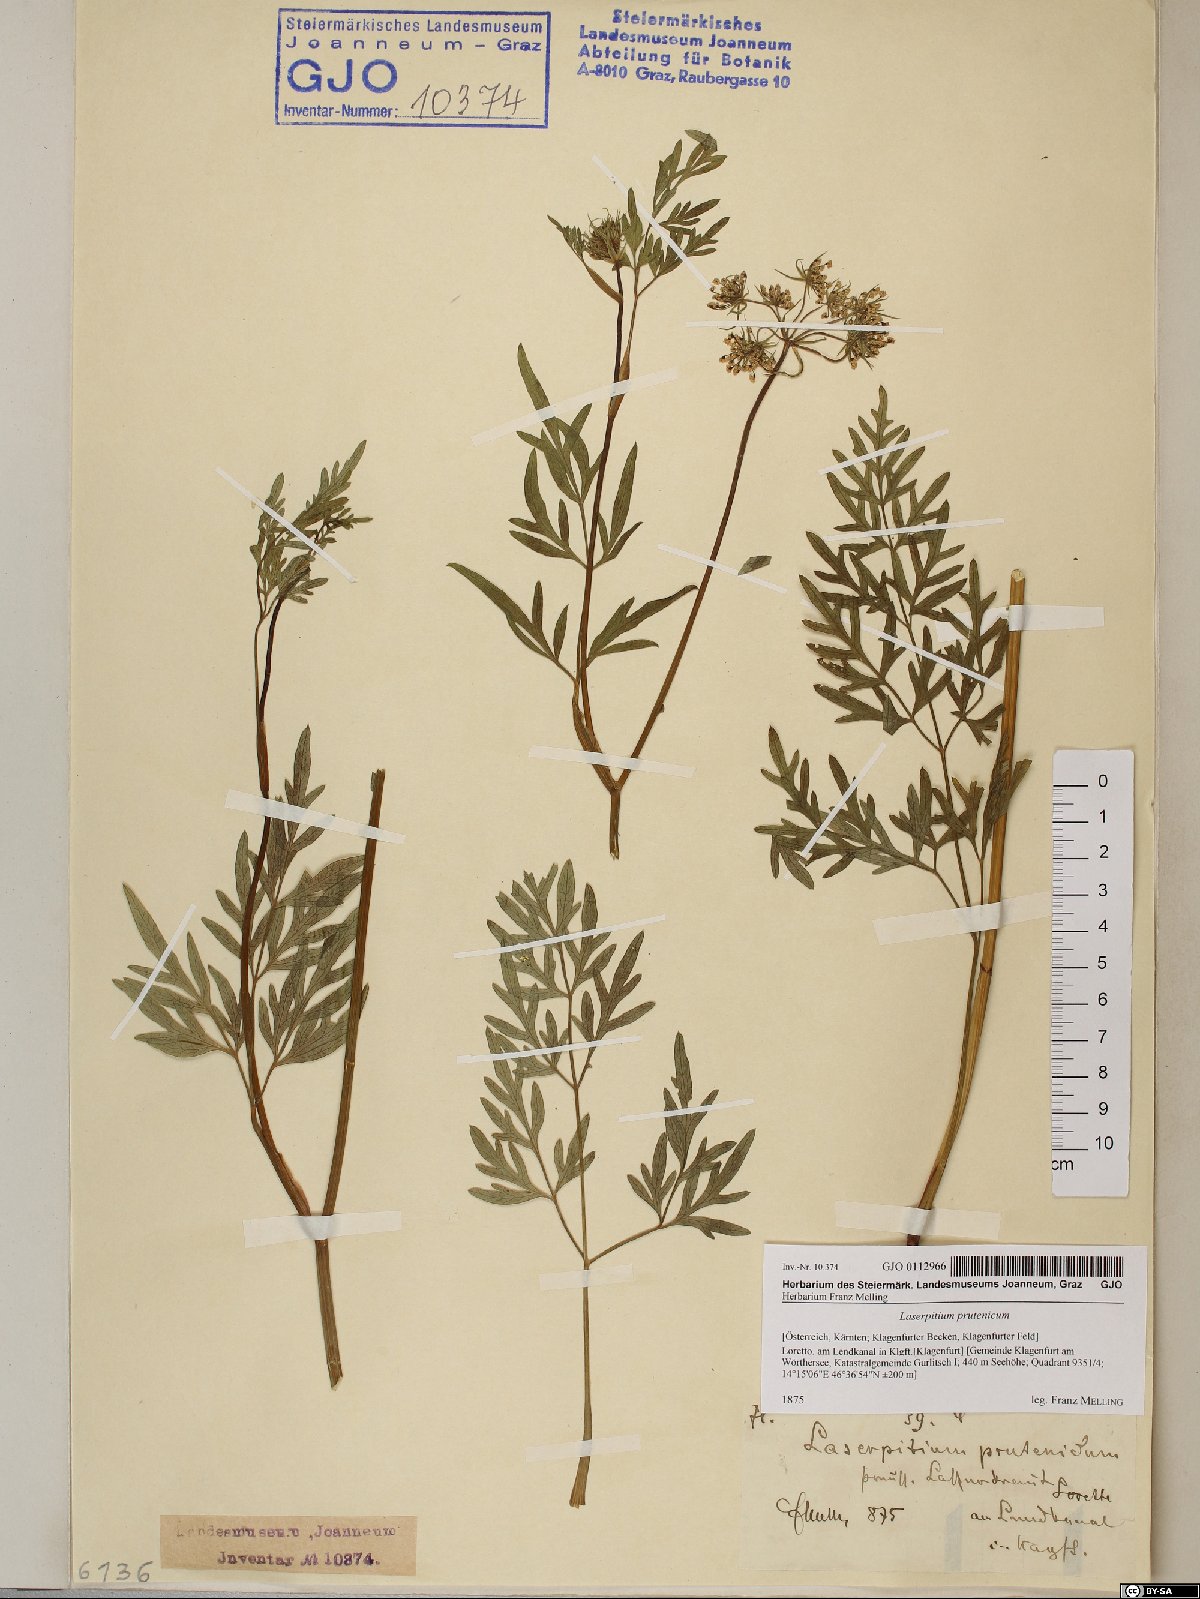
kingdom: Plantae
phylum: Tracheophyta
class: Magnoliopsida
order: Apiales
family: Apiaceae
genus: Silphiodaucus
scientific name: Silphiodaucus prutenicus
